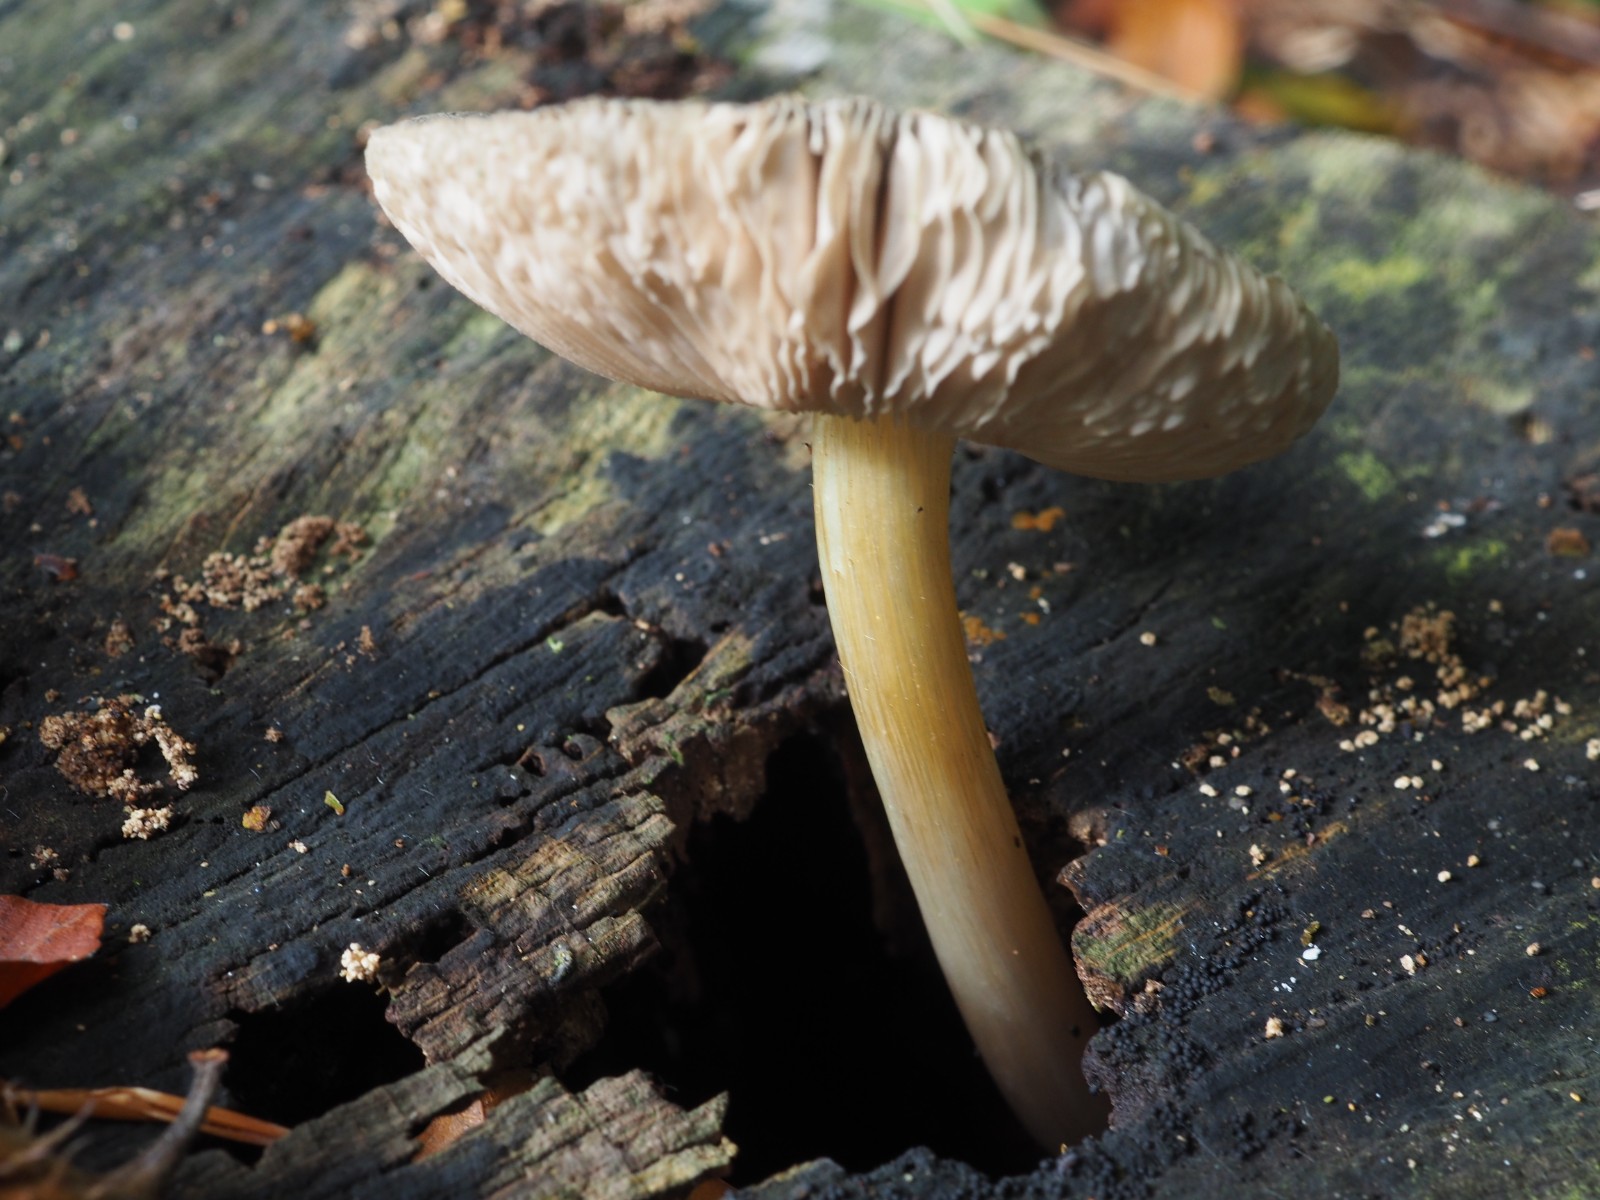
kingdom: Fungi
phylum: Basidiomycota
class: Agaricomycetes
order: Agaricales
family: Pluteaceae
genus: Pluteus
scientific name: Pluteus romellii
